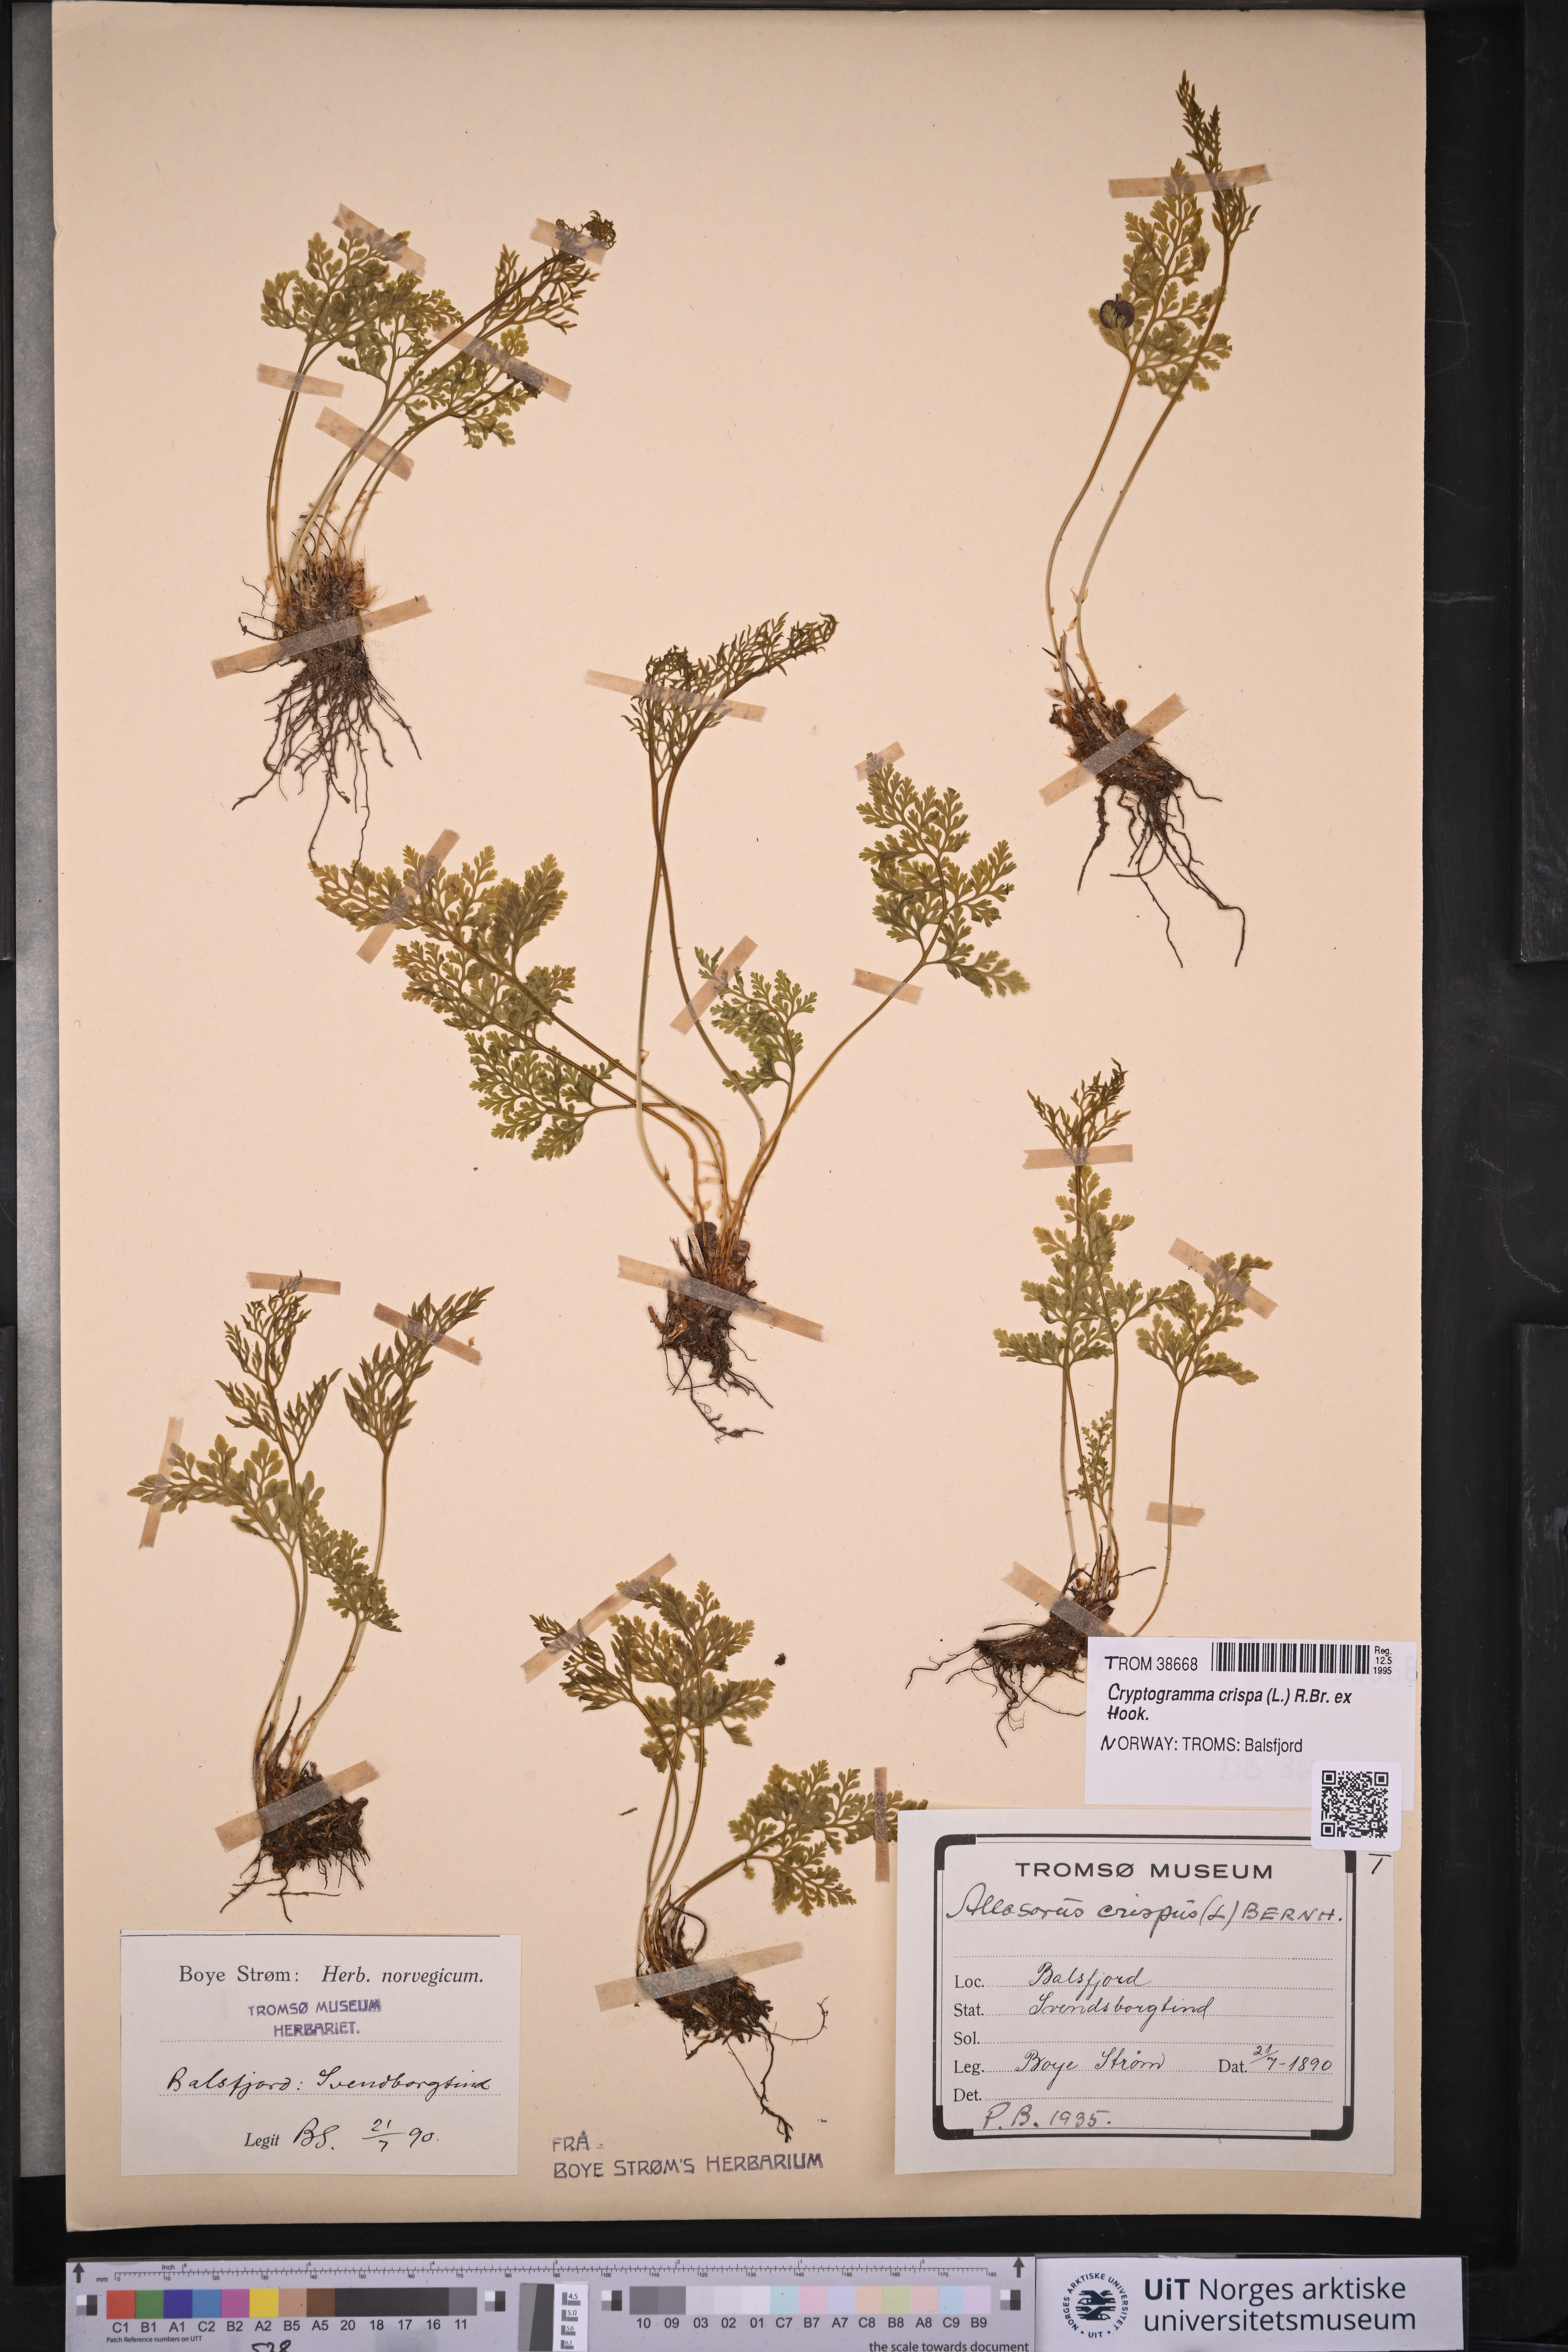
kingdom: Plantae
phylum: Tracheophyta
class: Polypodiopsida
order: Polypodiales
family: Pteridaceae
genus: Cryptogramma
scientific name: Cryptogramma crispa
